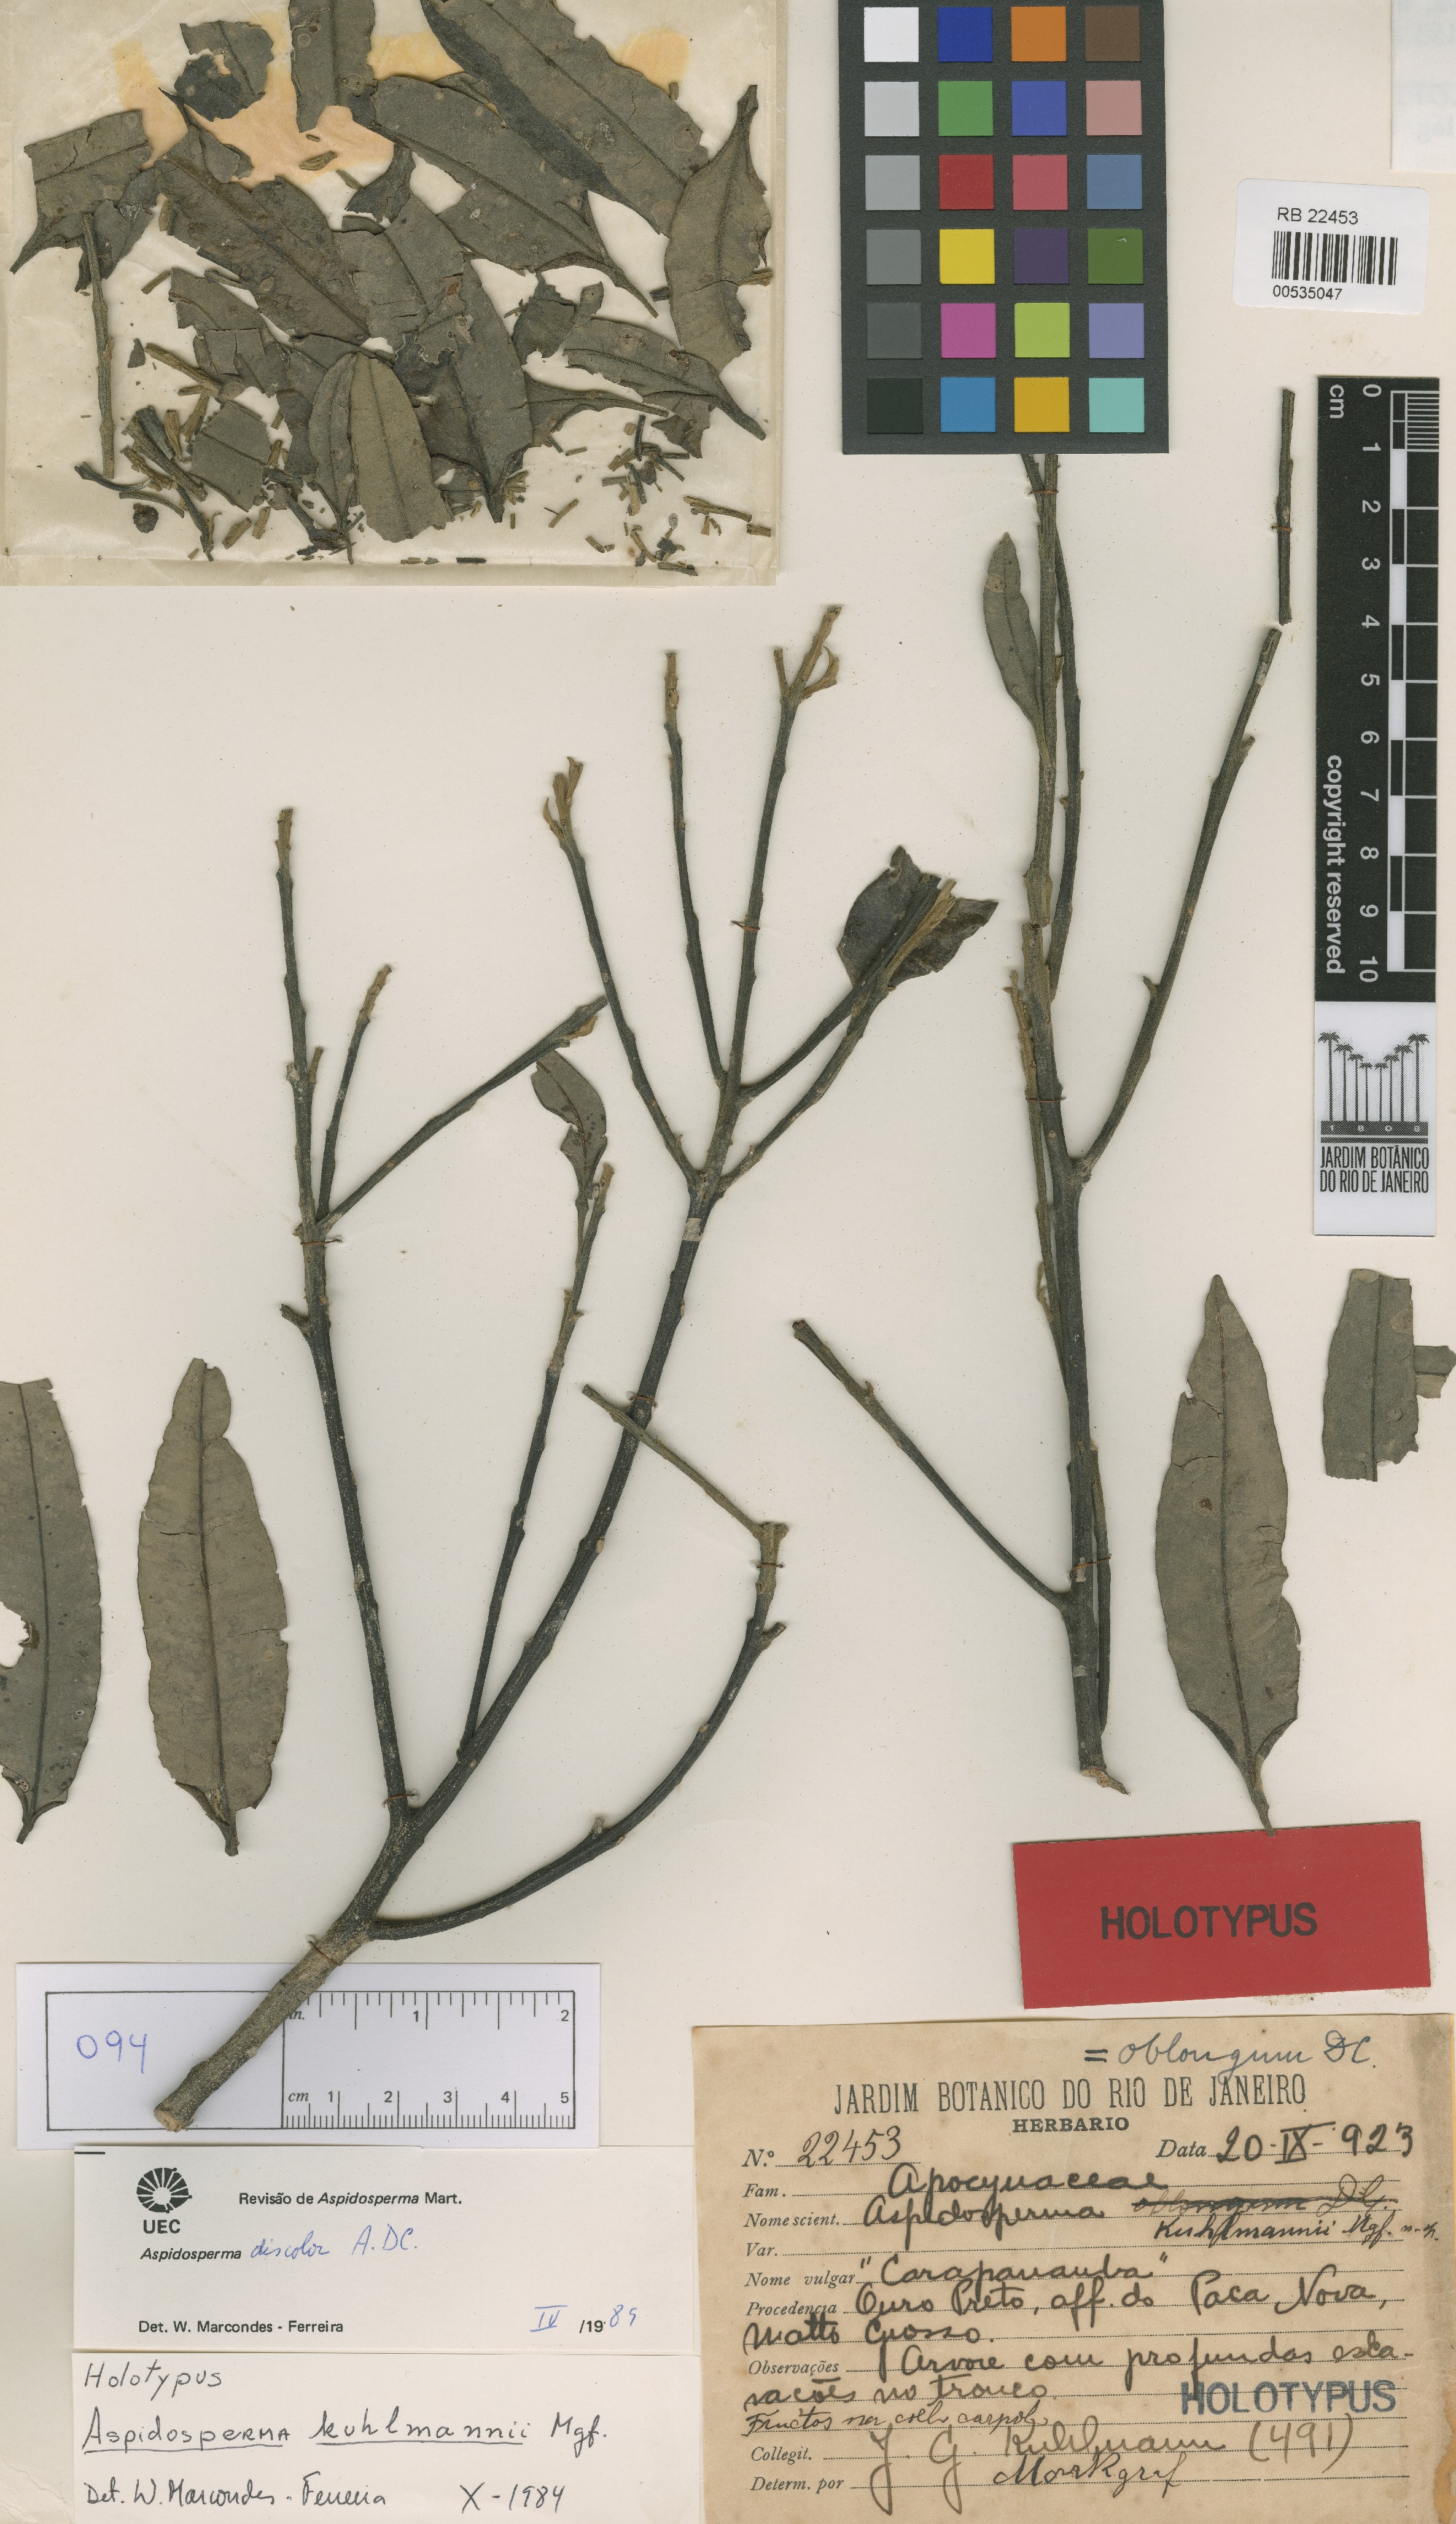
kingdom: Plantae
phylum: Tracheophyta
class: Magnoliopsida
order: Gentianales
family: Apocynaceae
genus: Aspidosperma
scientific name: Aspidosperma oblongum
